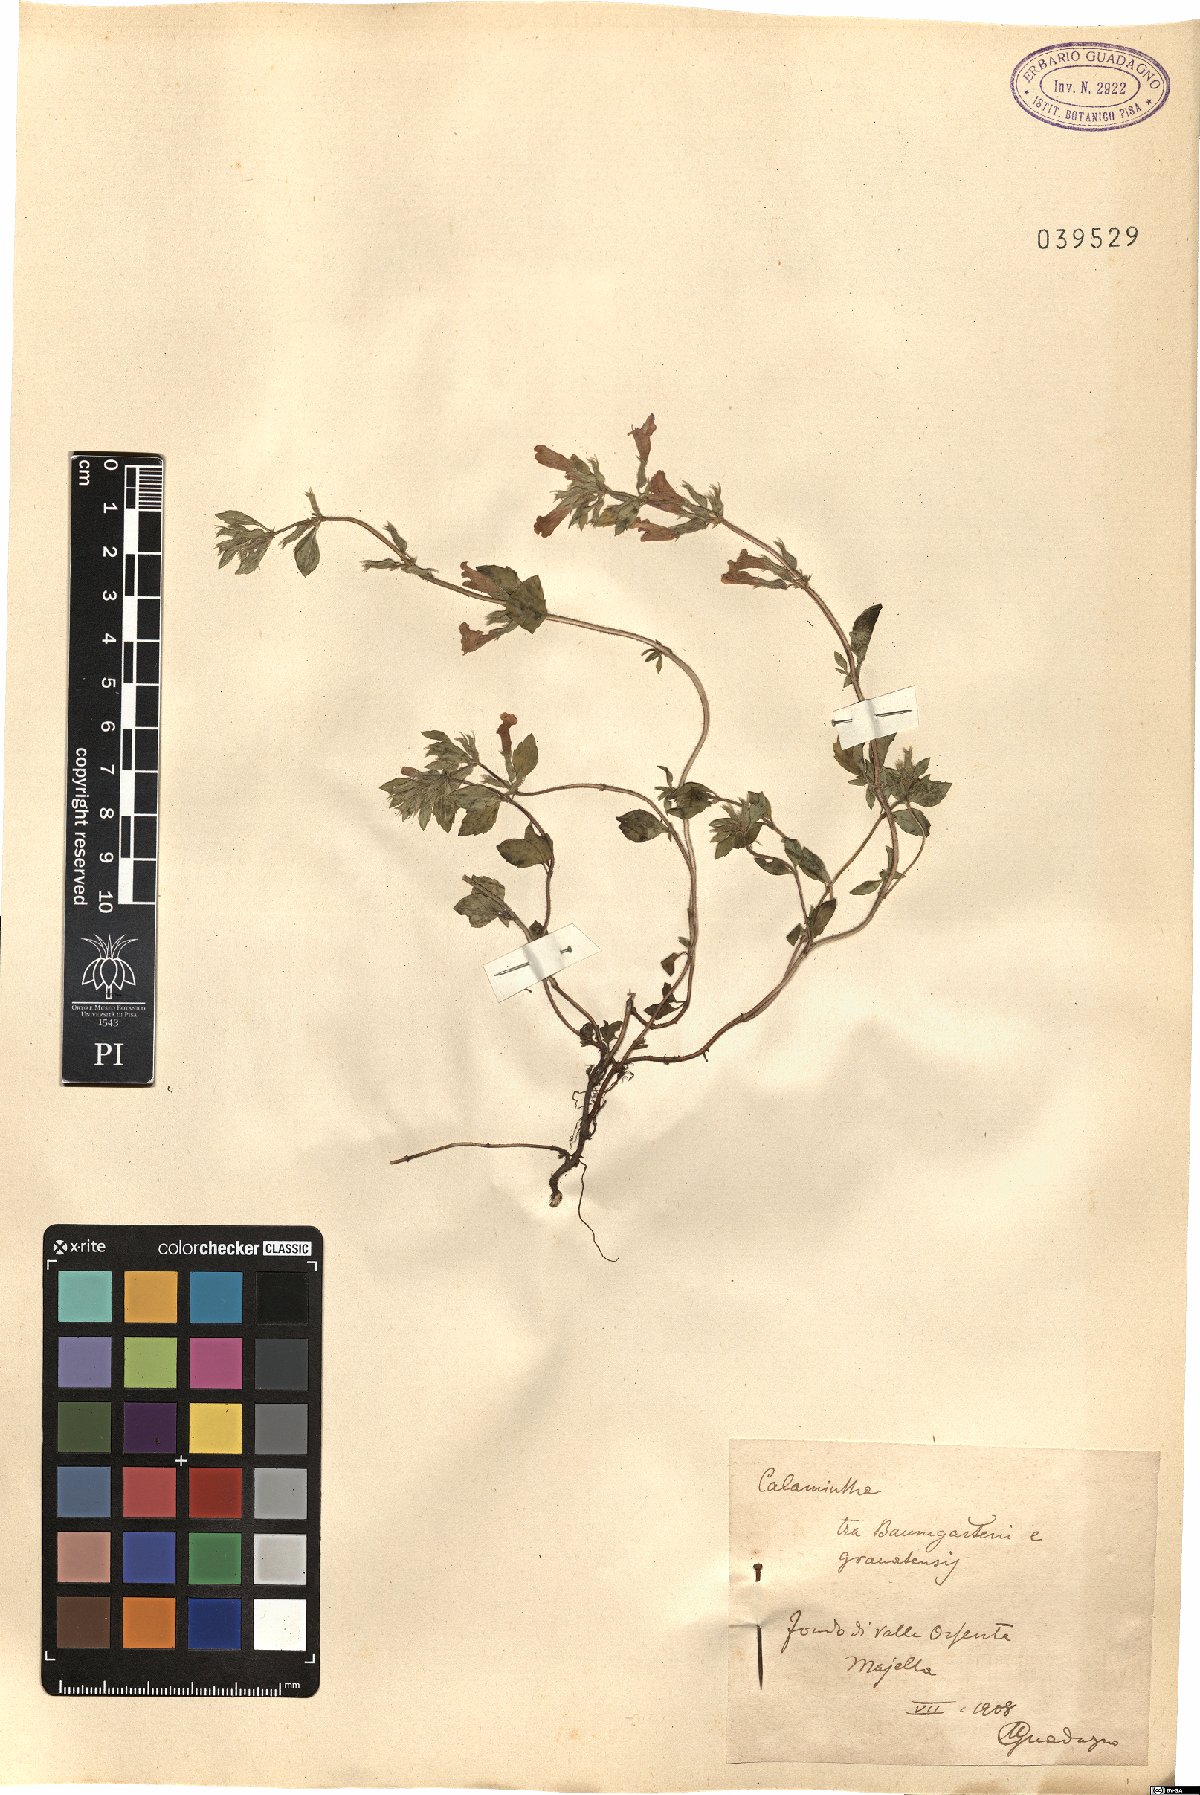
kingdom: Plantae
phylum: Tracheophyta
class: Magnoliopsida
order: Lamiales
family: Lamiaceae
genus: Clinopodium
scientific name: Clinopodium alpinum
